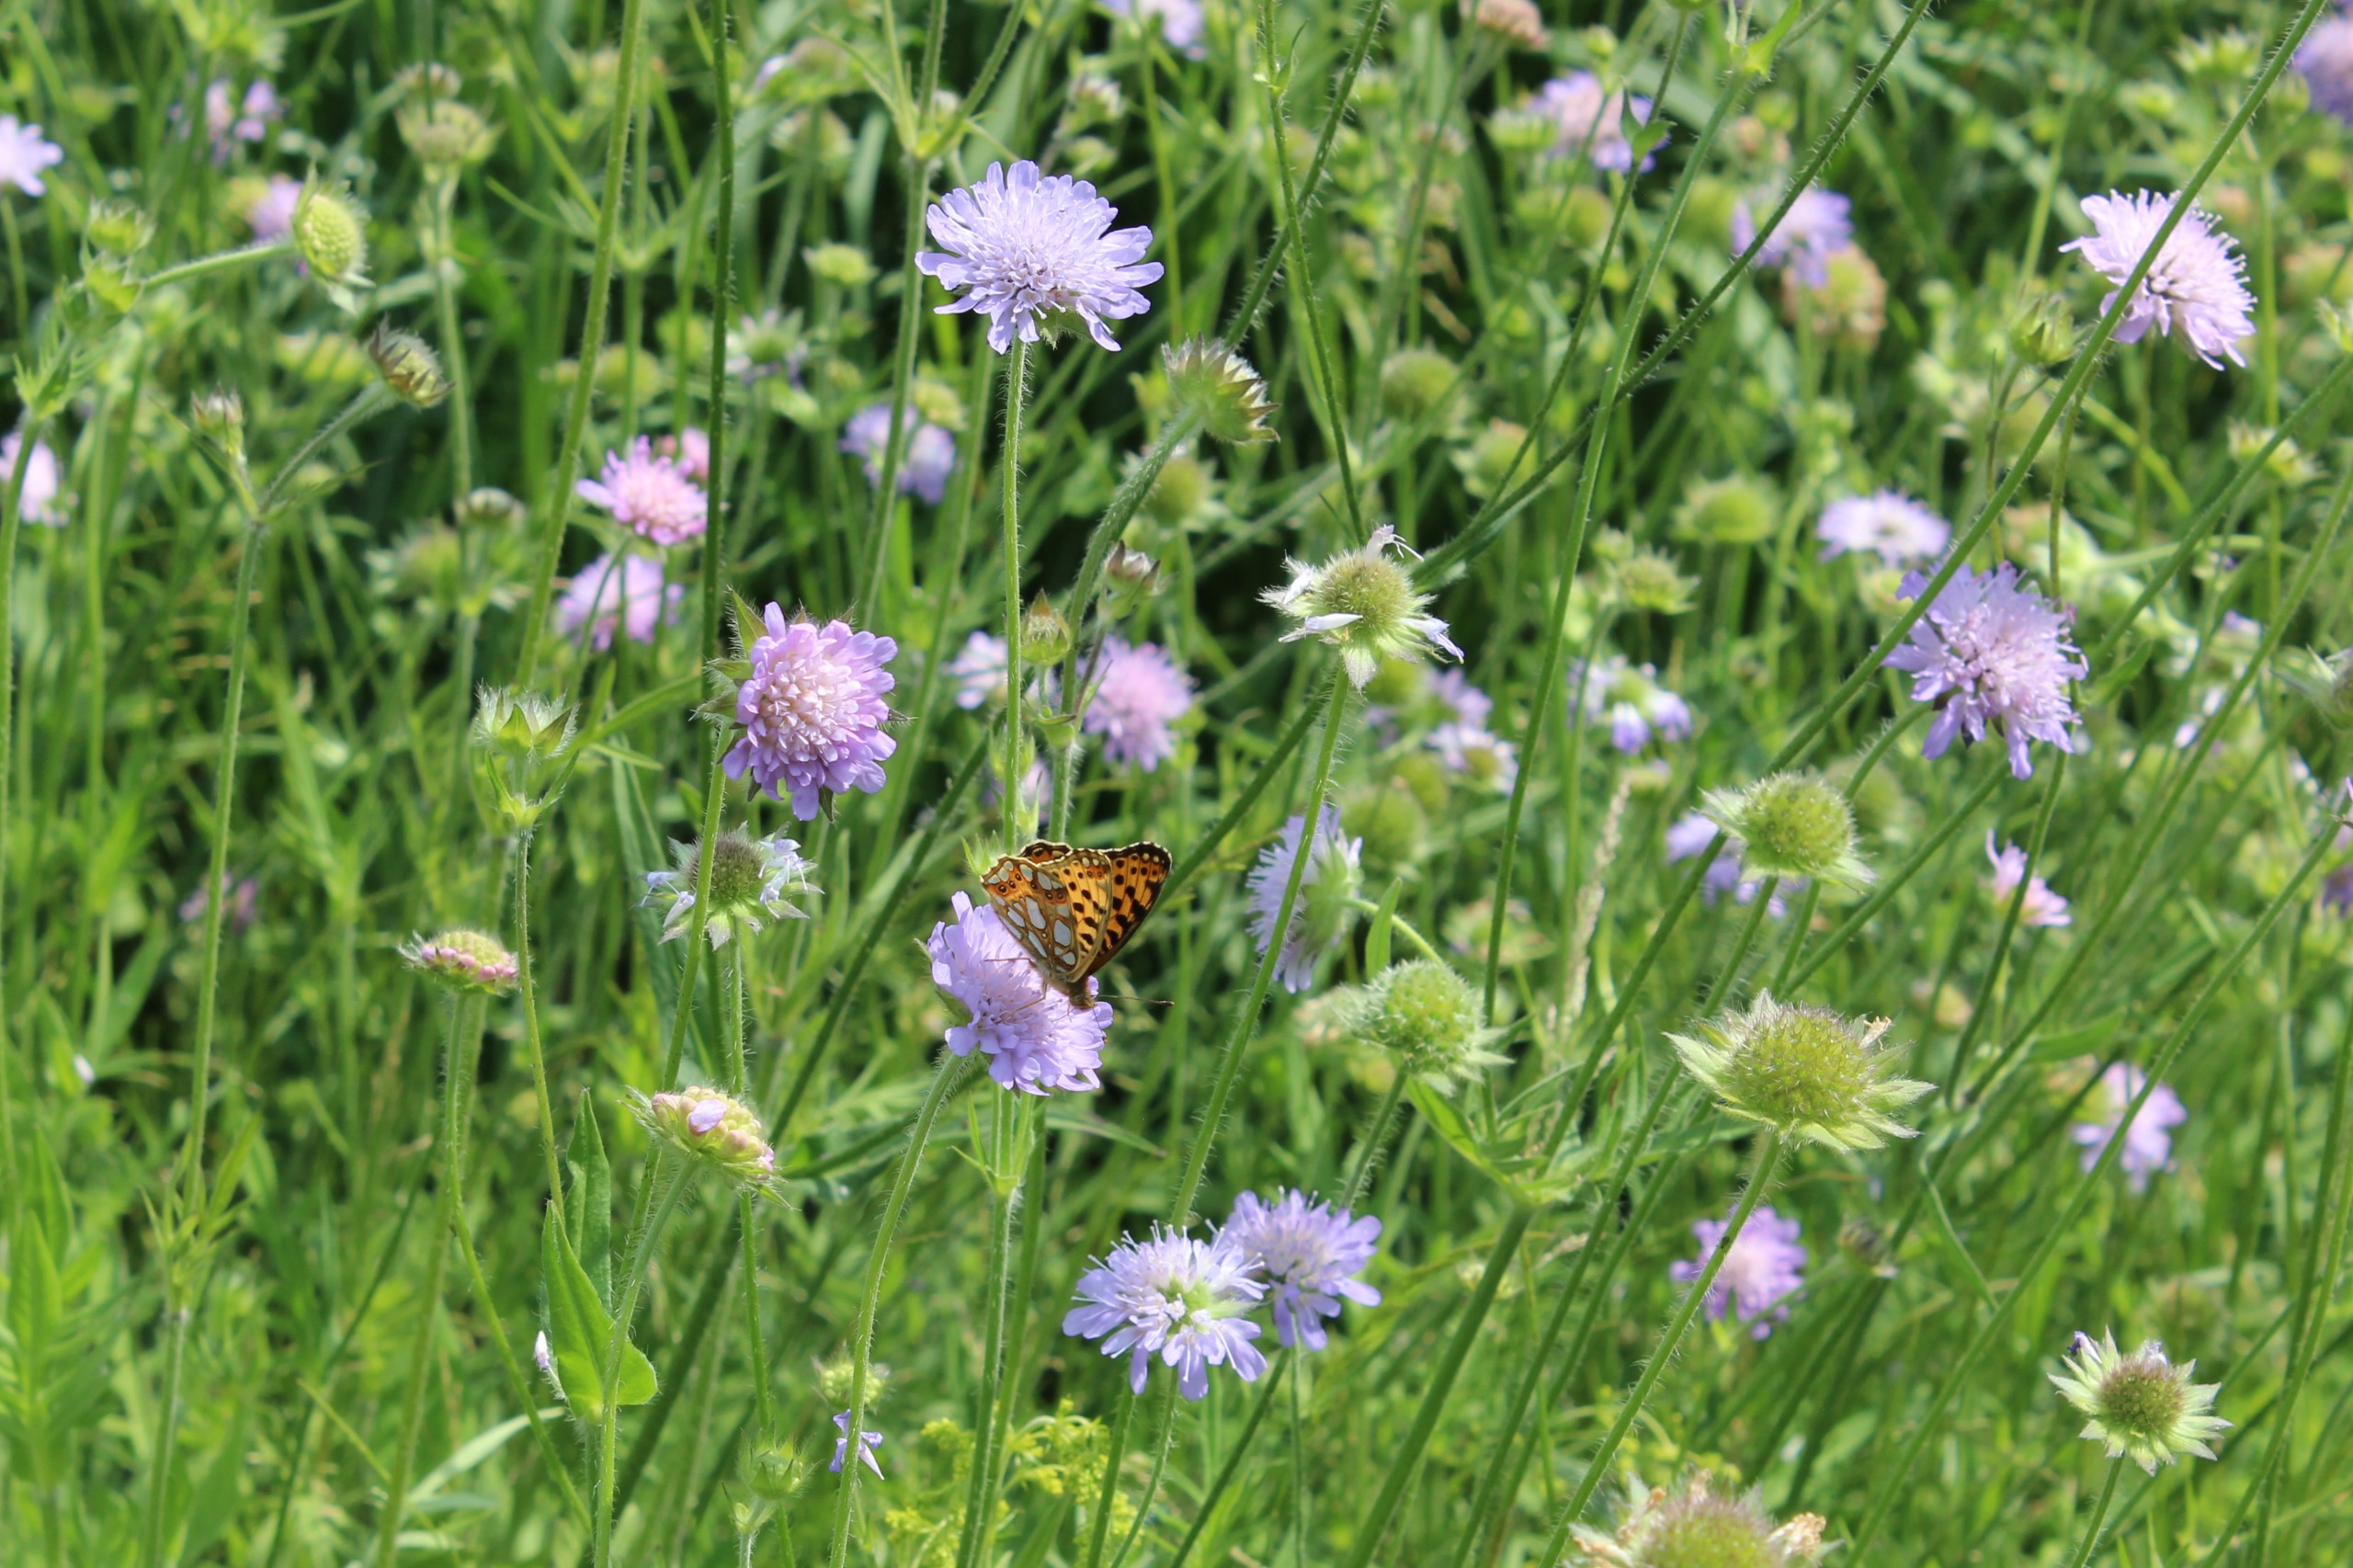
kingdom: Animalia
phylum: Arthropoda
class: Insecta
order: Lepidoptera
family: Nymphalidae
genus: Issoria
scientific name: Issoria lathonia
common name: Storplettet perlemorsommerfugl
